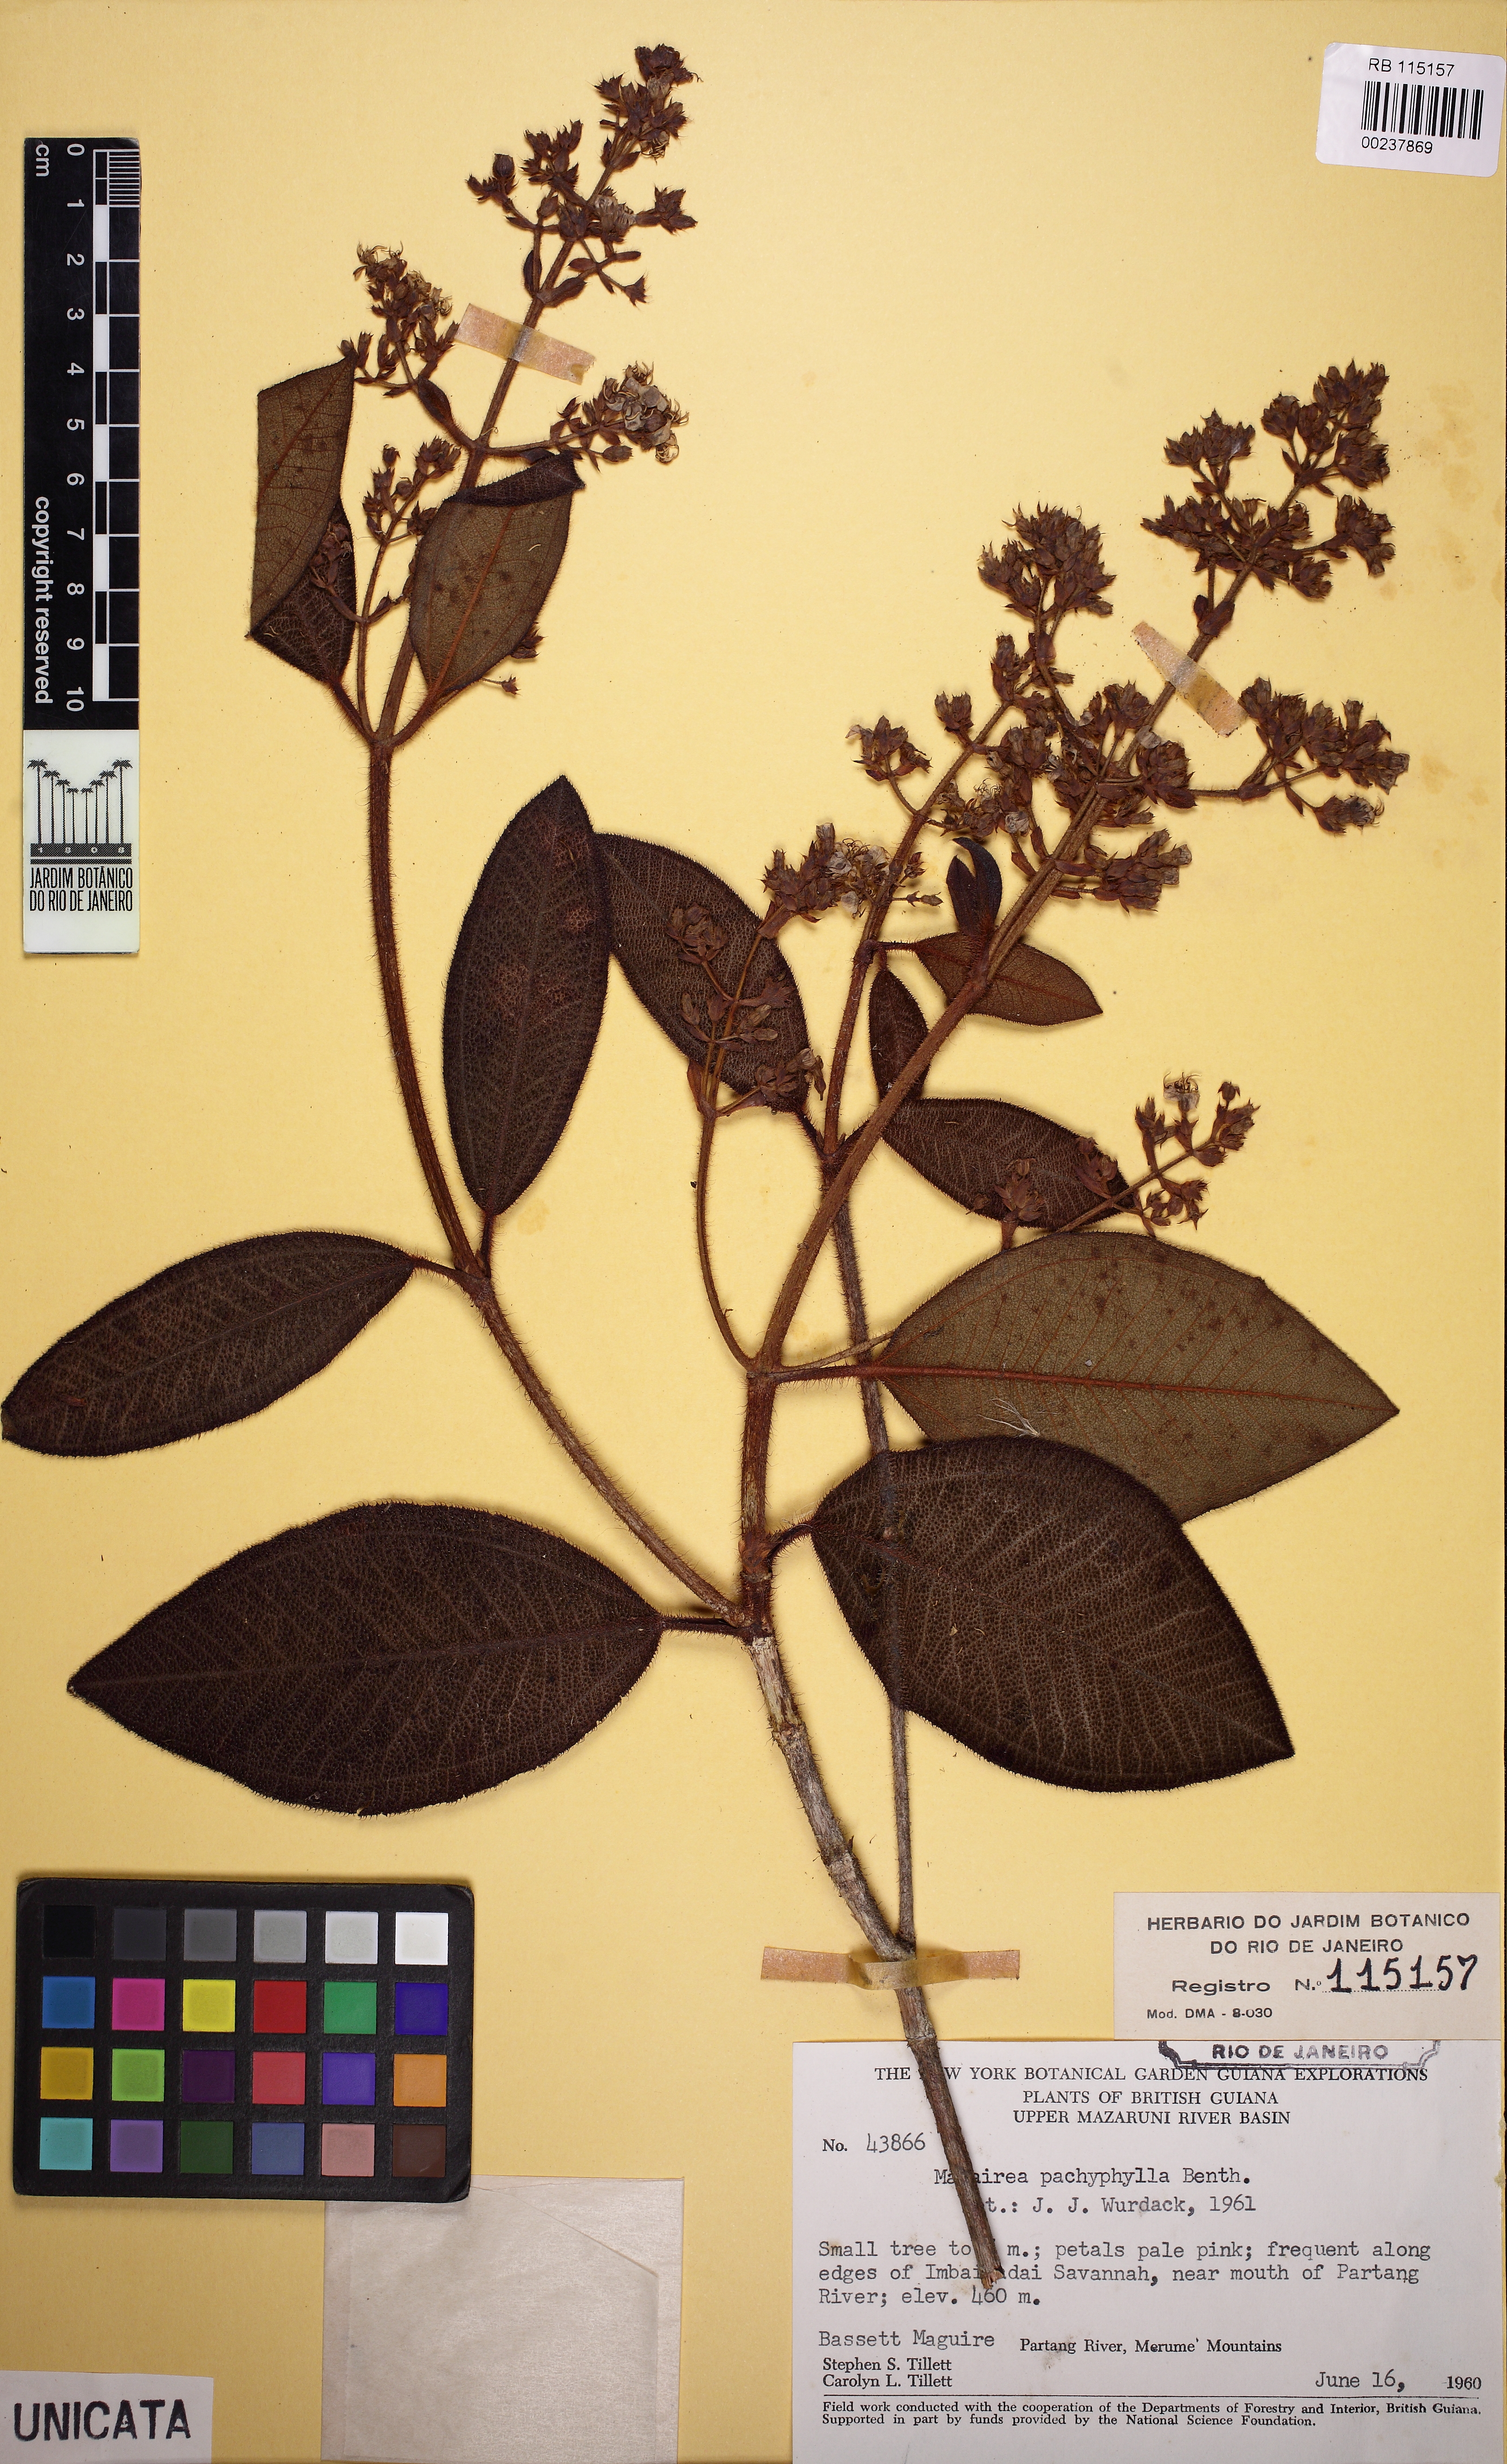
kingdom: Plantae
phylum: Tracheophyta
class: Magnoliopsida
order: Myrtales
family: Melastomataceae
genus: Macairea
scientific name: Macairea pachyphylla
